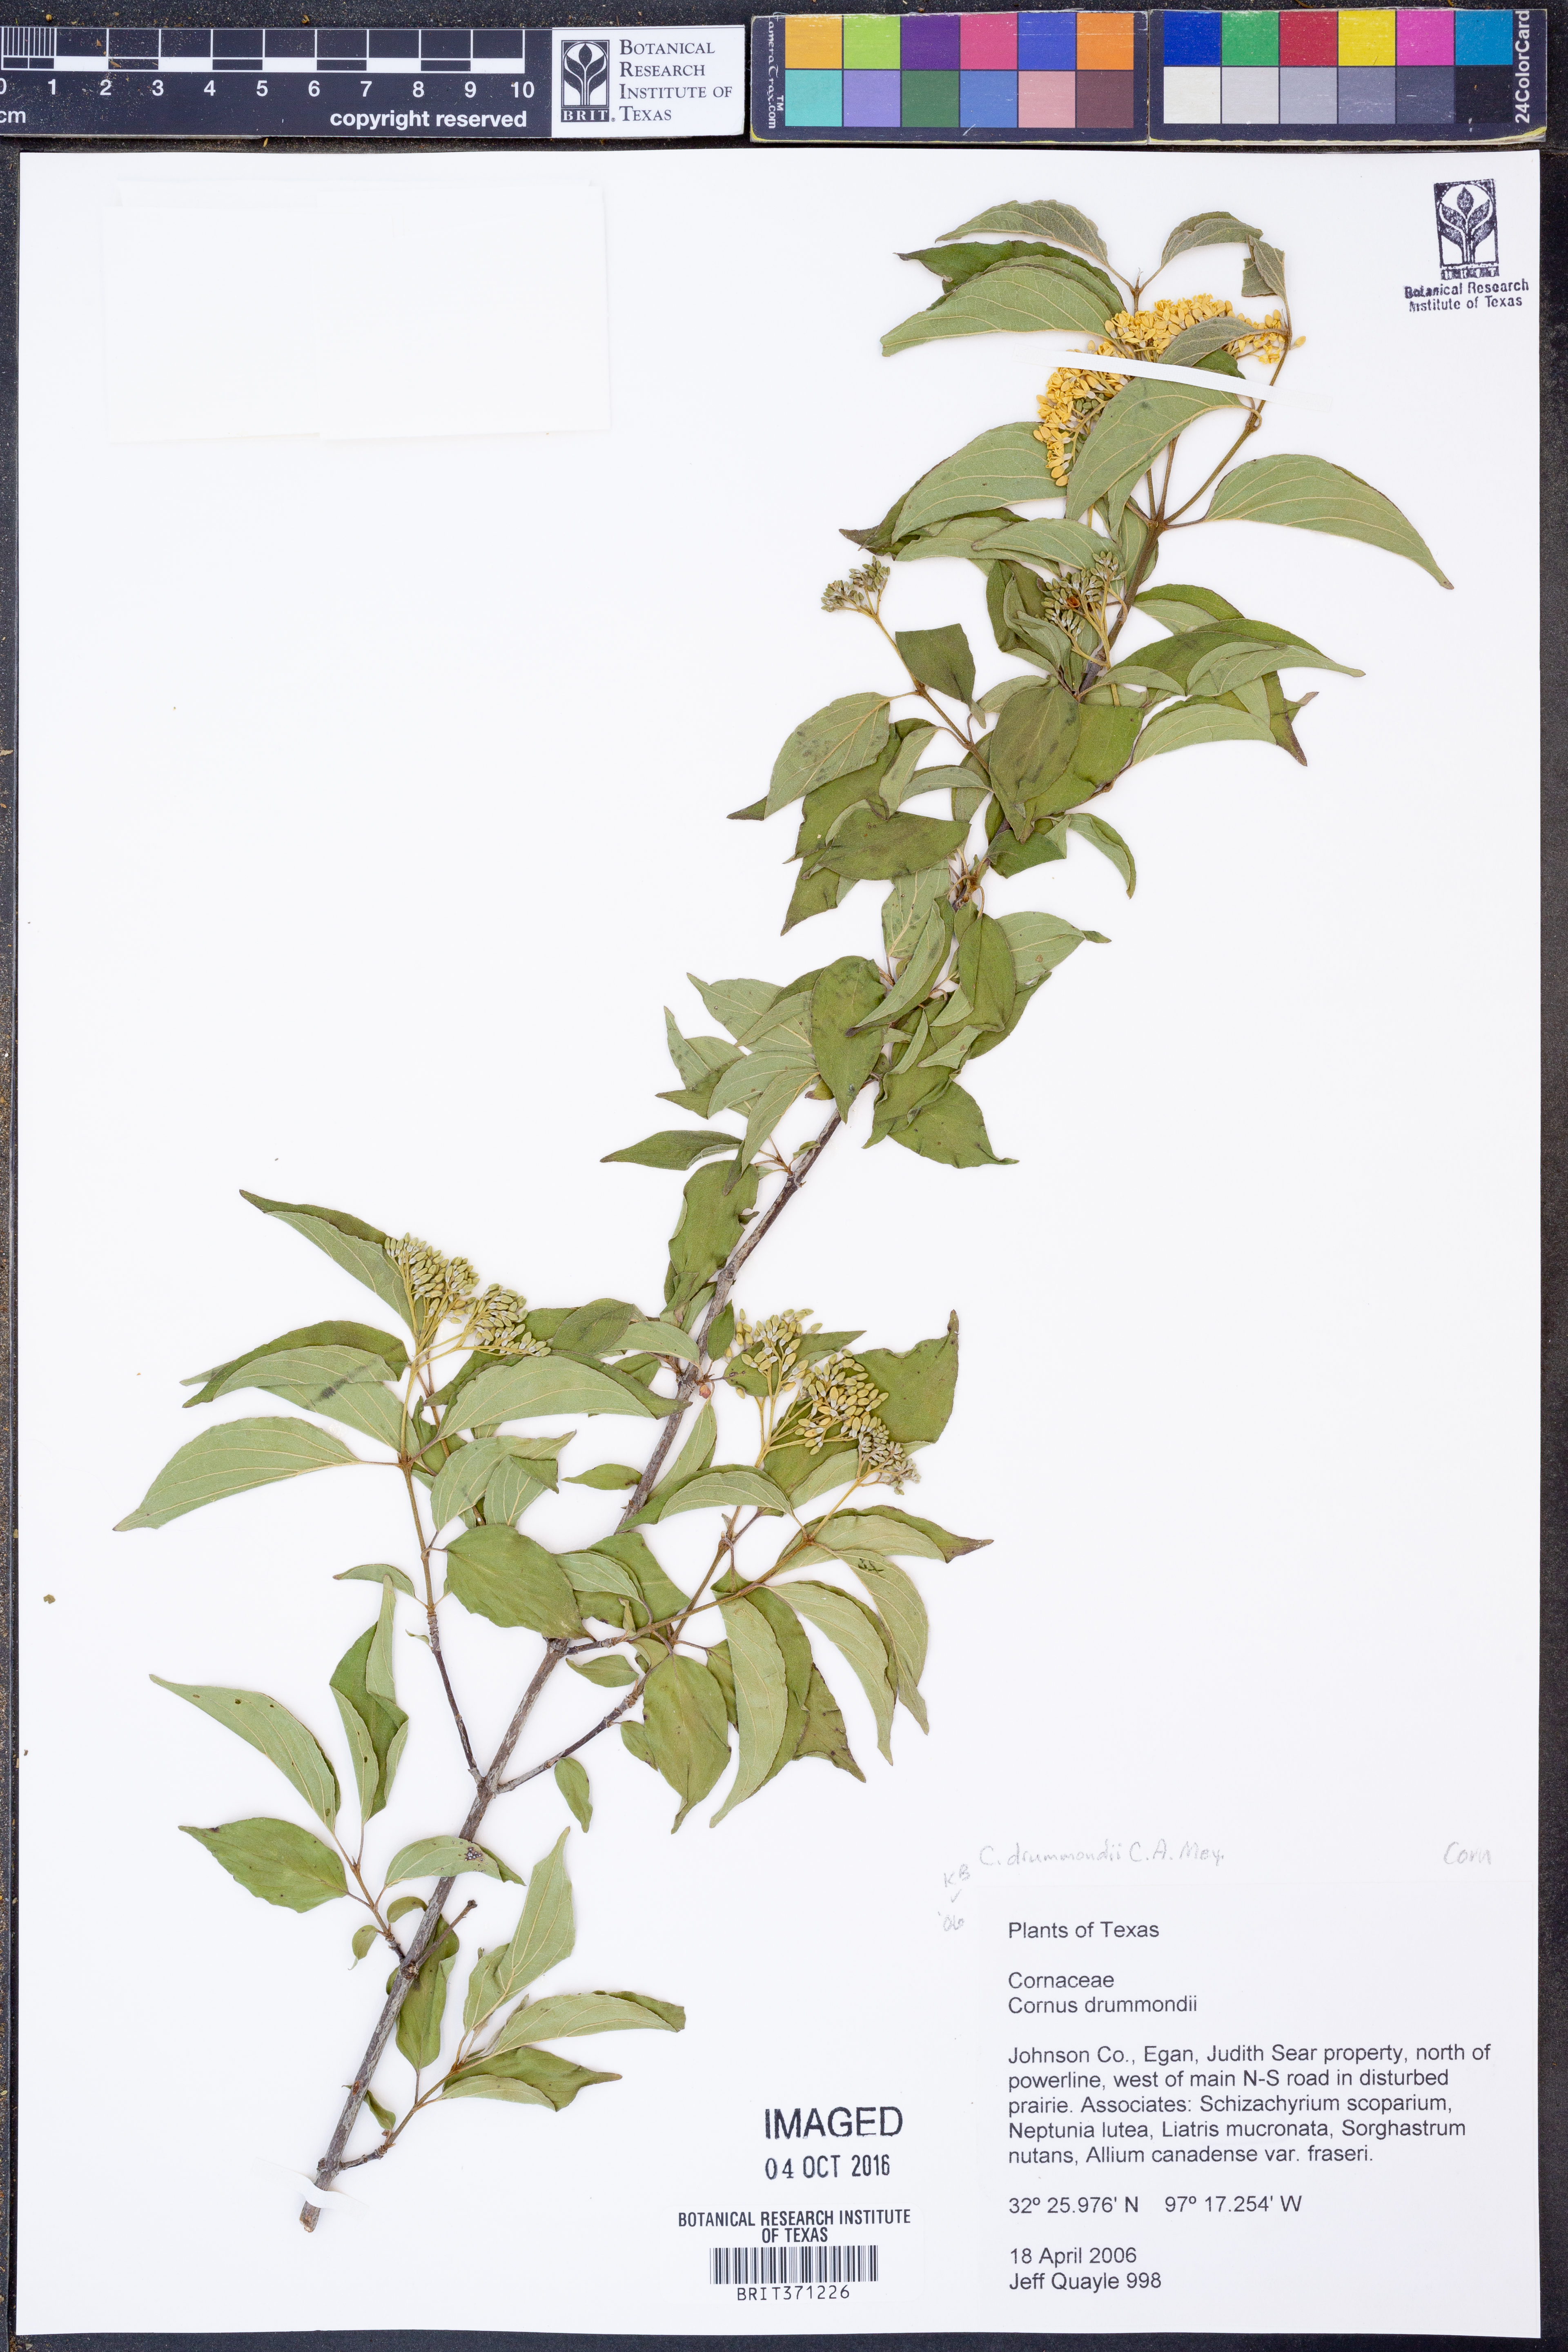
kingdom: Plantae
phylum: Tracheophyta
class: Magnoliopsida
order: Cornales
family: Cornaceae
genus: Cornus
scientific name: Cornus drummondii
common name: Rough-leaf dogwood
